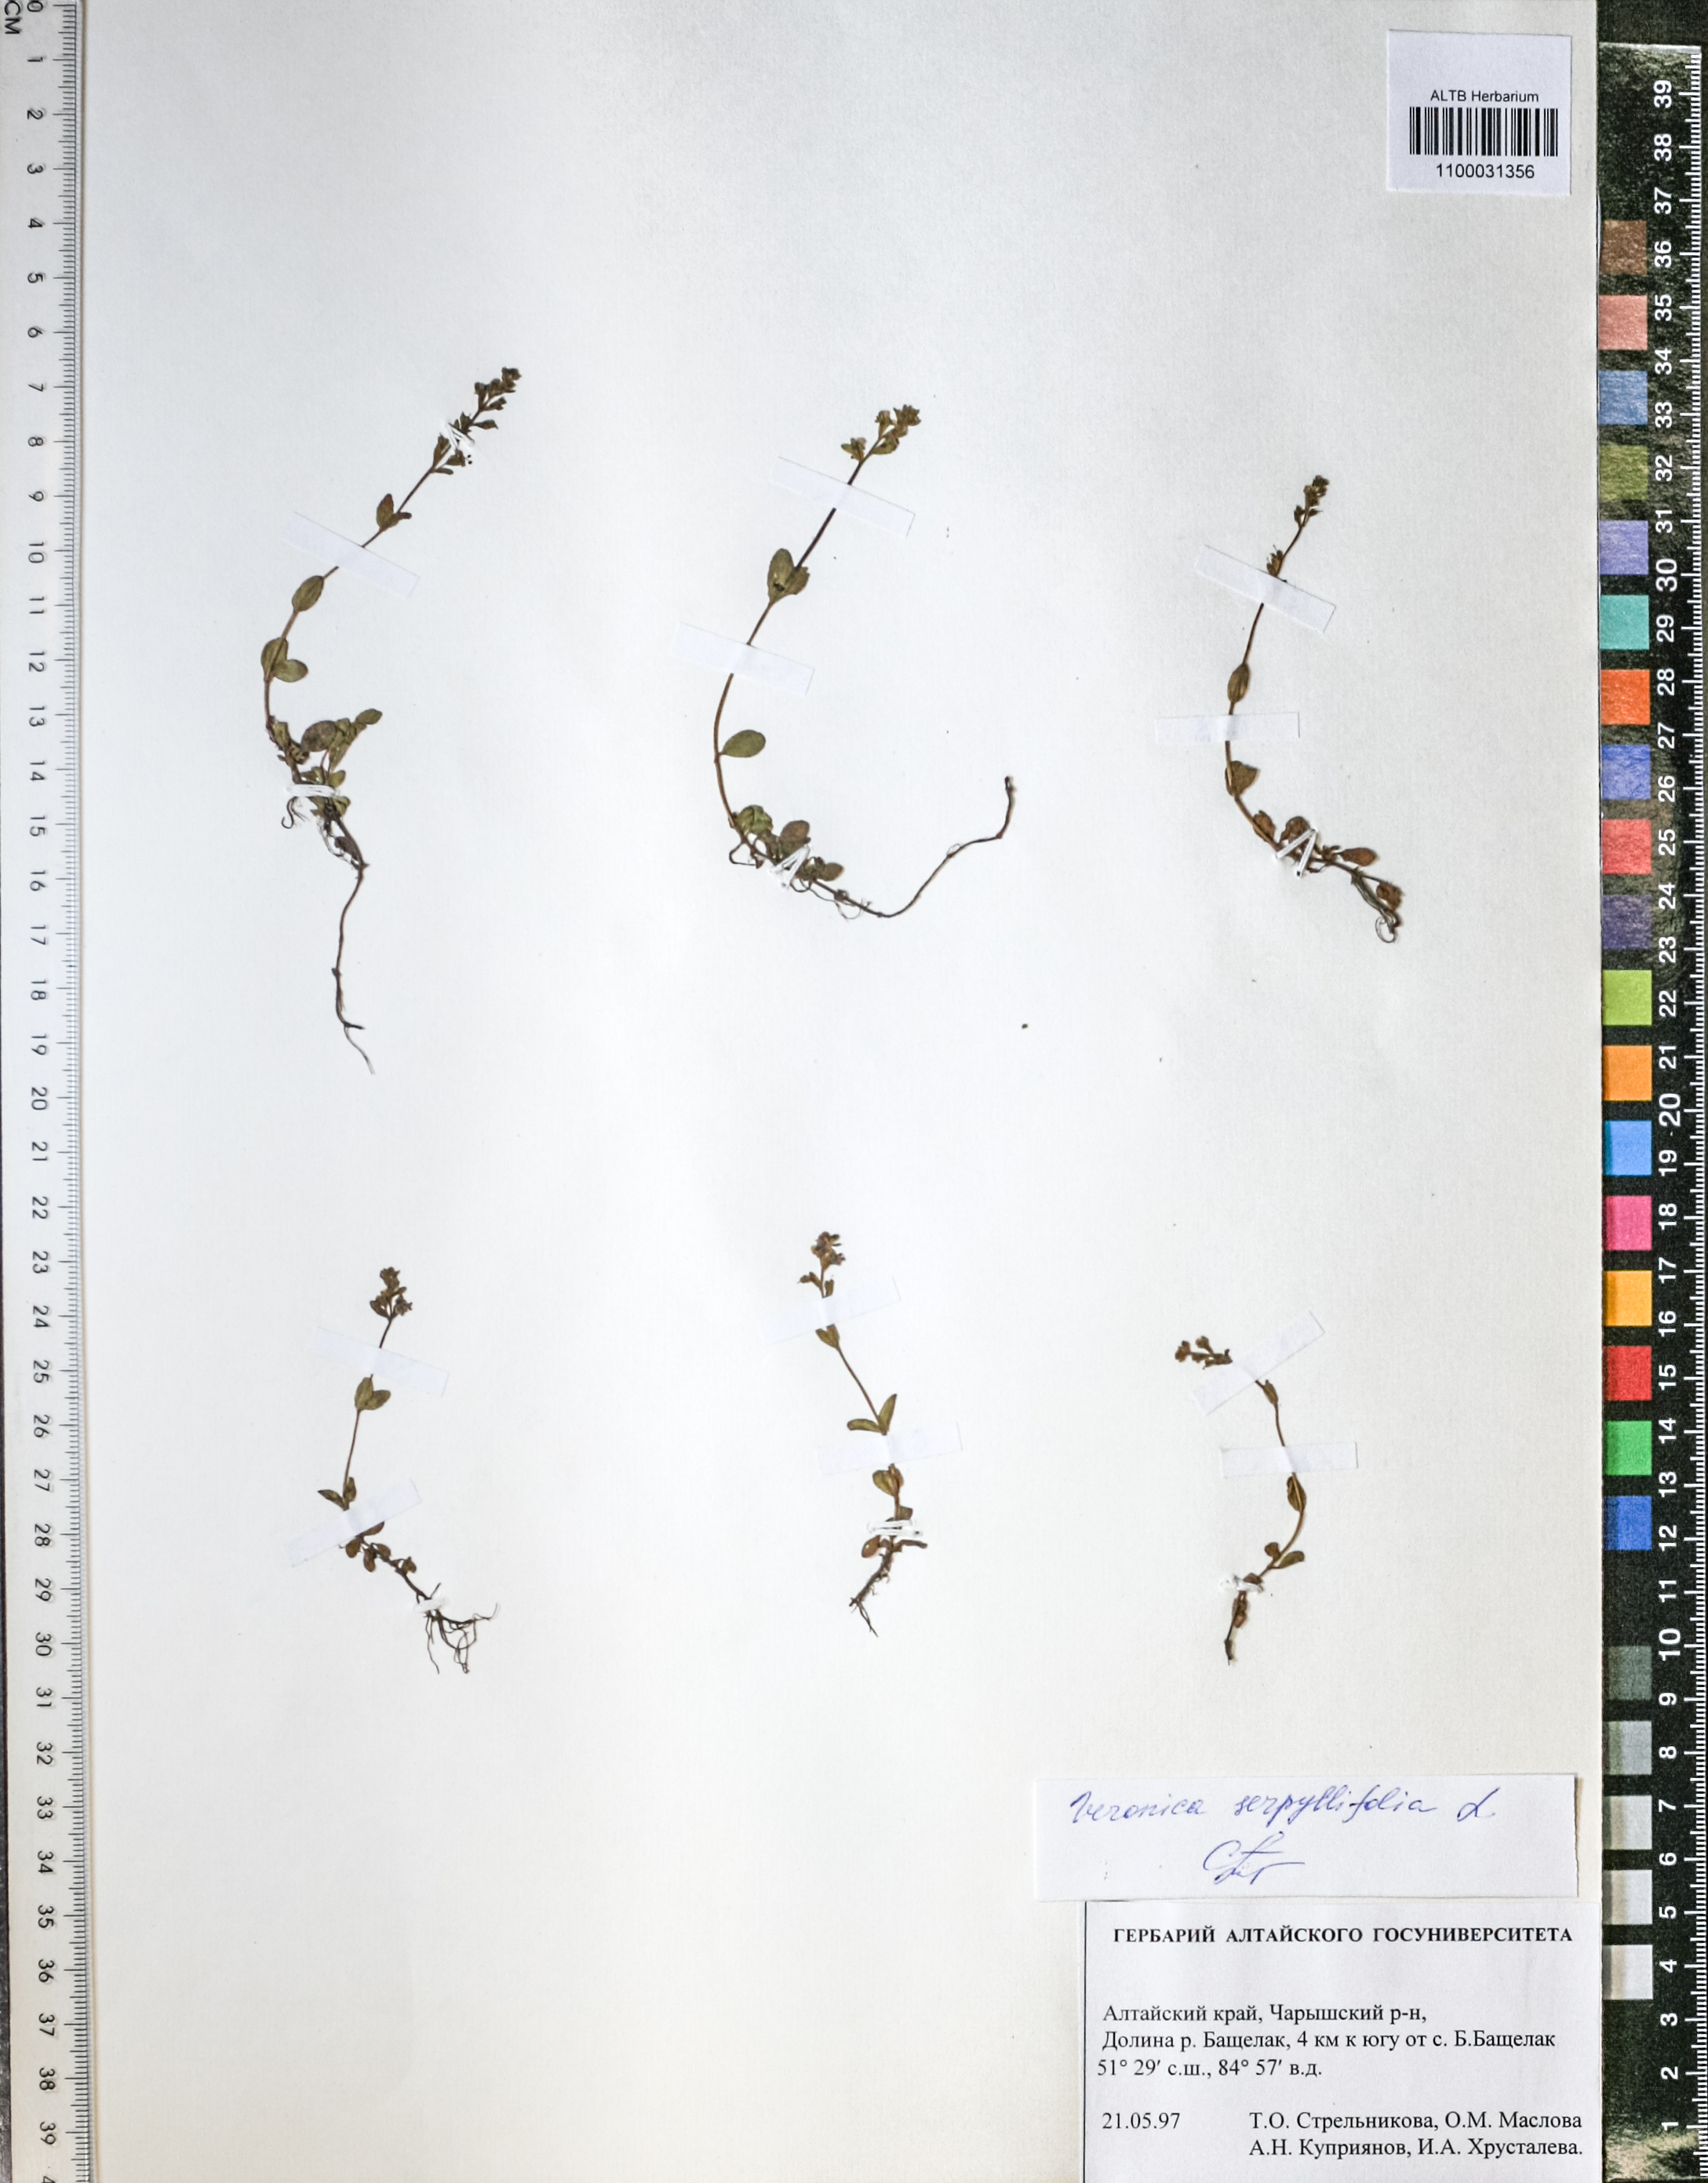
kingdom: Plantae
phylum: Tracheophyta
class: Magnoliopsida
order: Lamiales
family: Plantaginaceae
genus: Veronica
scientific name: Veronica serpyllifolia
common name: Thyme-leaved speedwell
